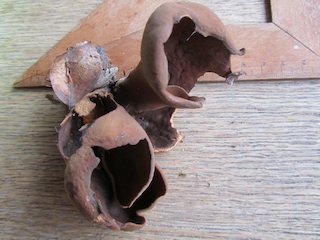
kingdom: Fungi
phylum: Ascomycota
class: Pezizomycetes
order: Pezizales
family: Pezizaceae
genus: Legaliana
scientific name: Legaliana badia
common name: leverbrun bægersvamp
